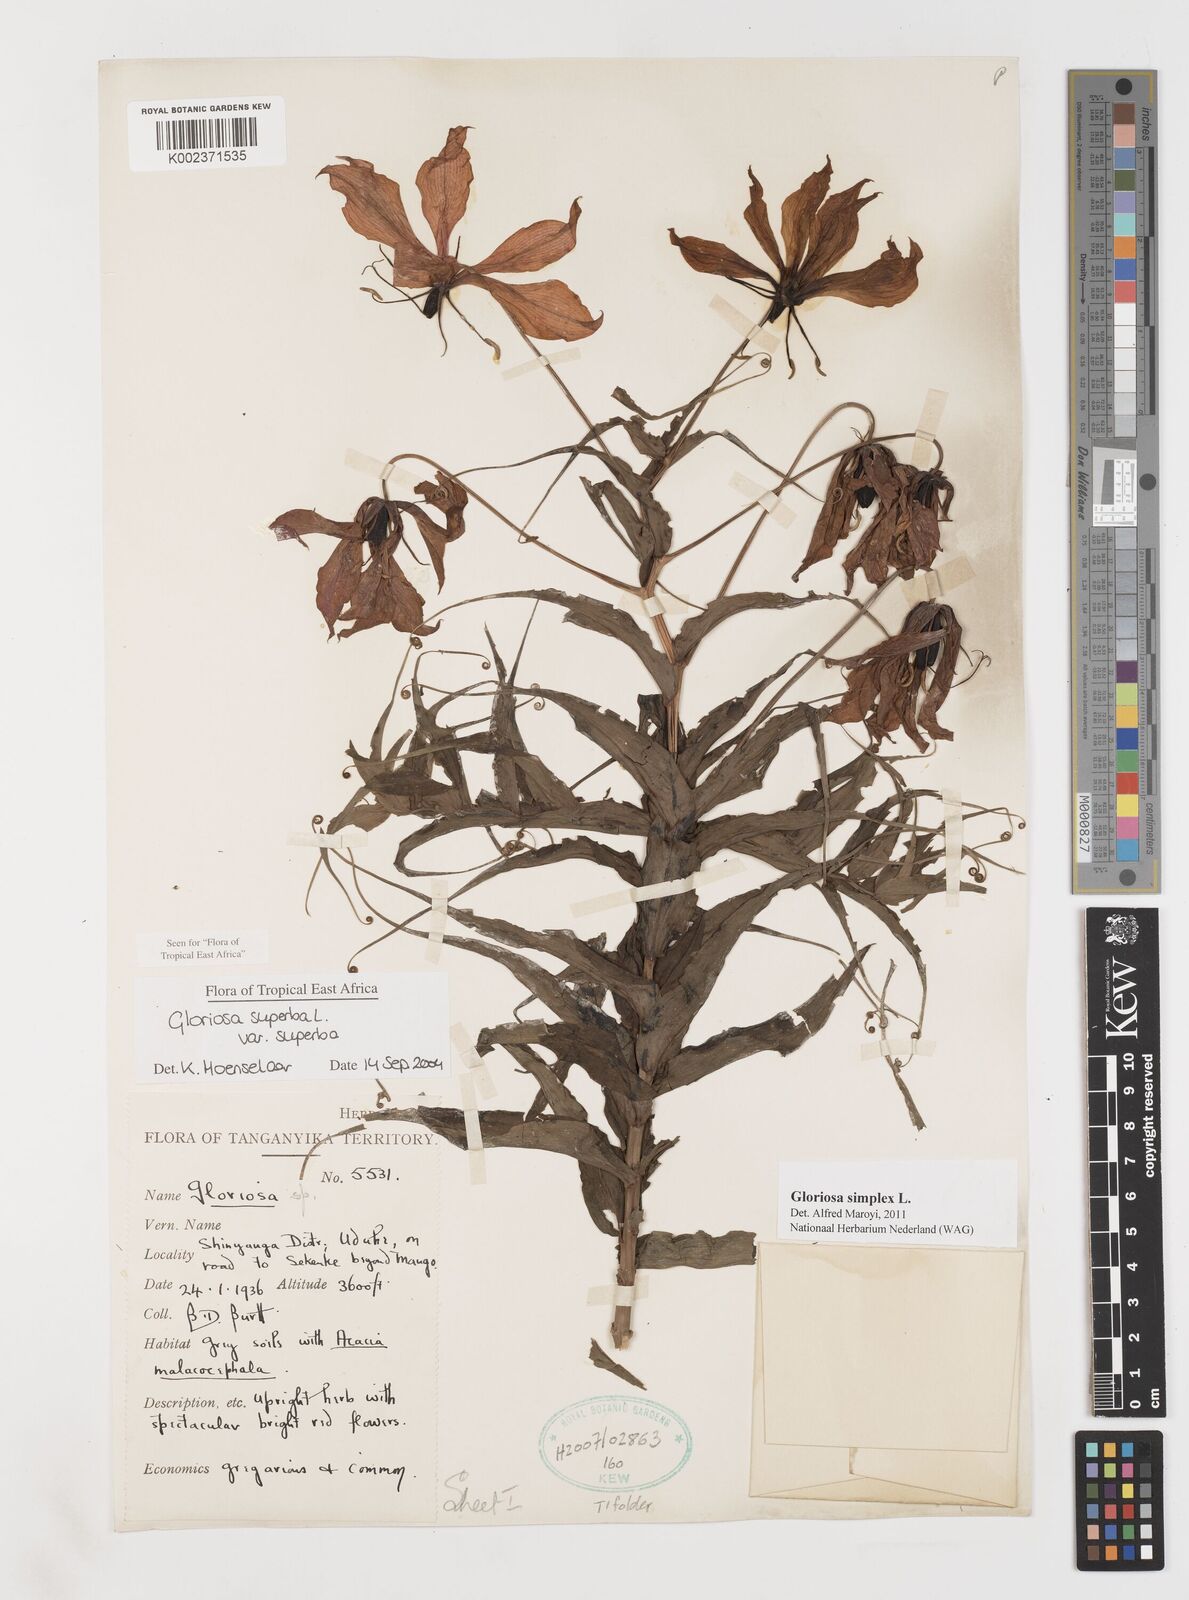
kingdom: Plantae
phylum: Tracheophyta
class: Liliopsida
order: Liliales
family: Colchicaceae
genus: Gloriosa
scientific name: Gloriosa simplex
